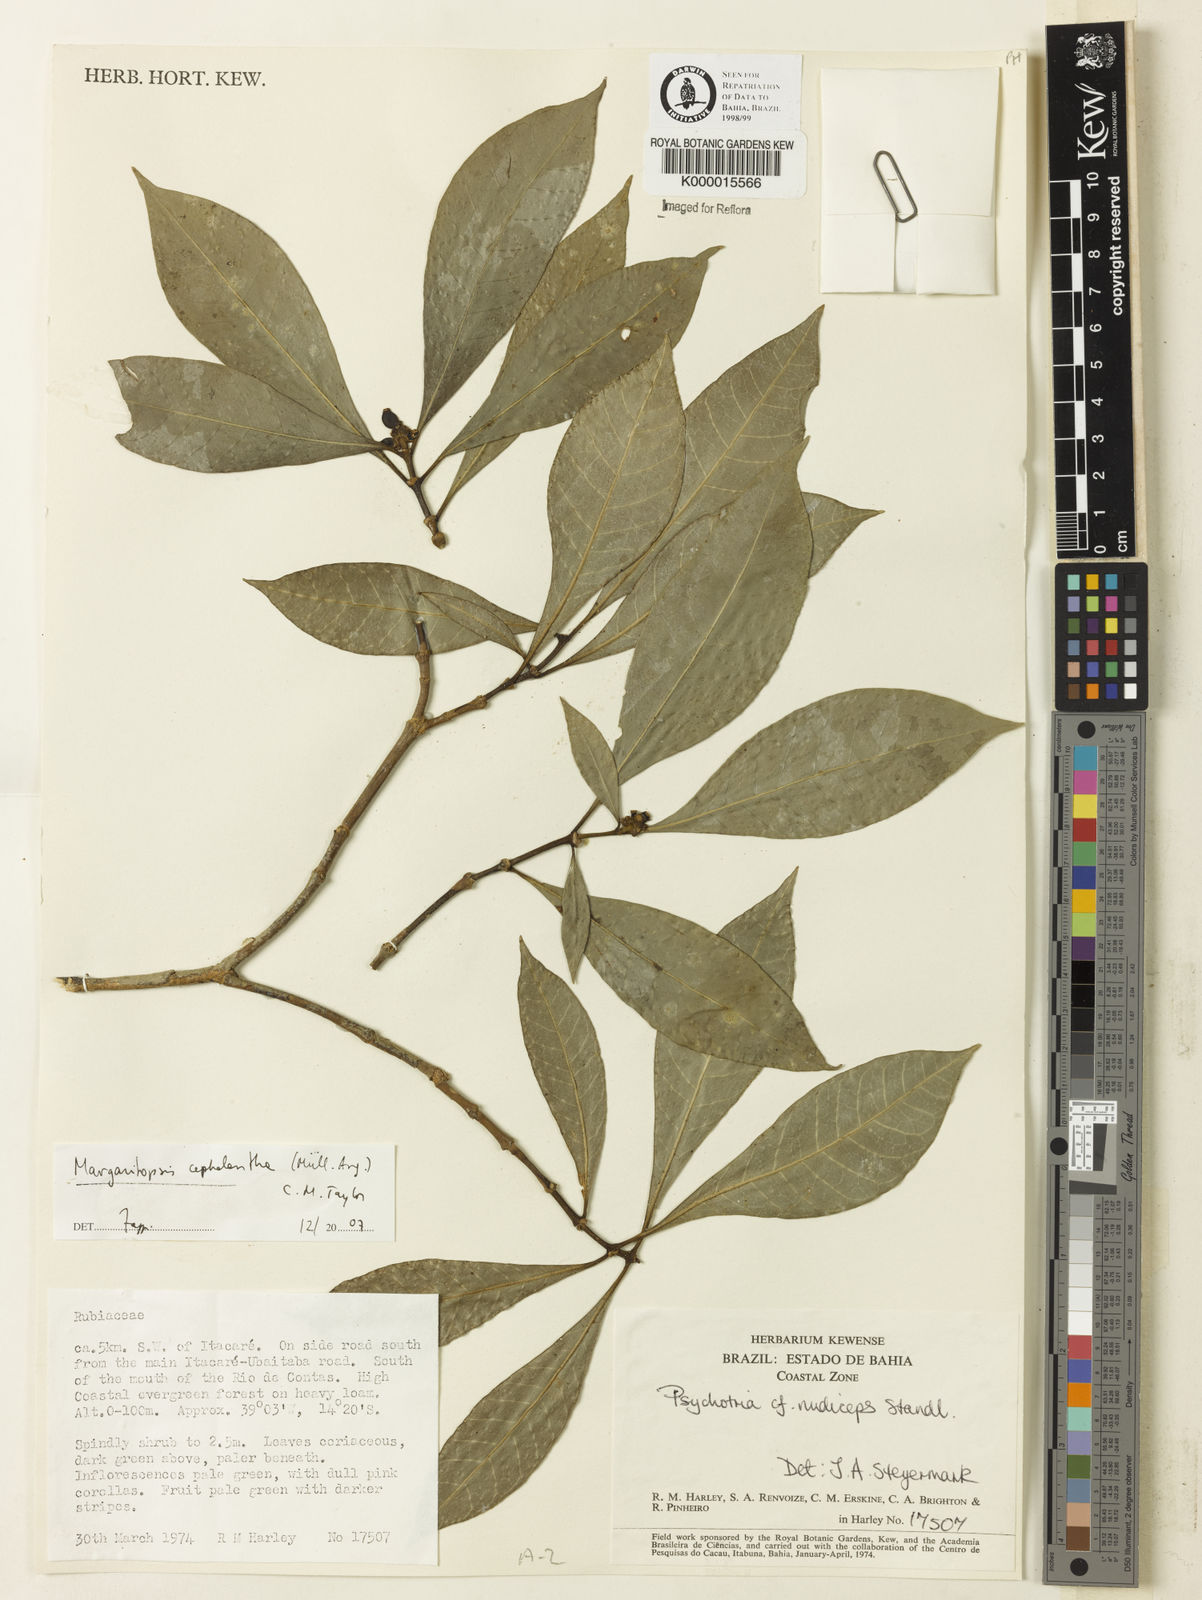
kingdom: Plantae
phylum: Tracheophyta
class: Magnoliopsida
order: Gentianales
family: Rubiaceae
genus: Eumachia
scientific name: Eumachia cephalantha
